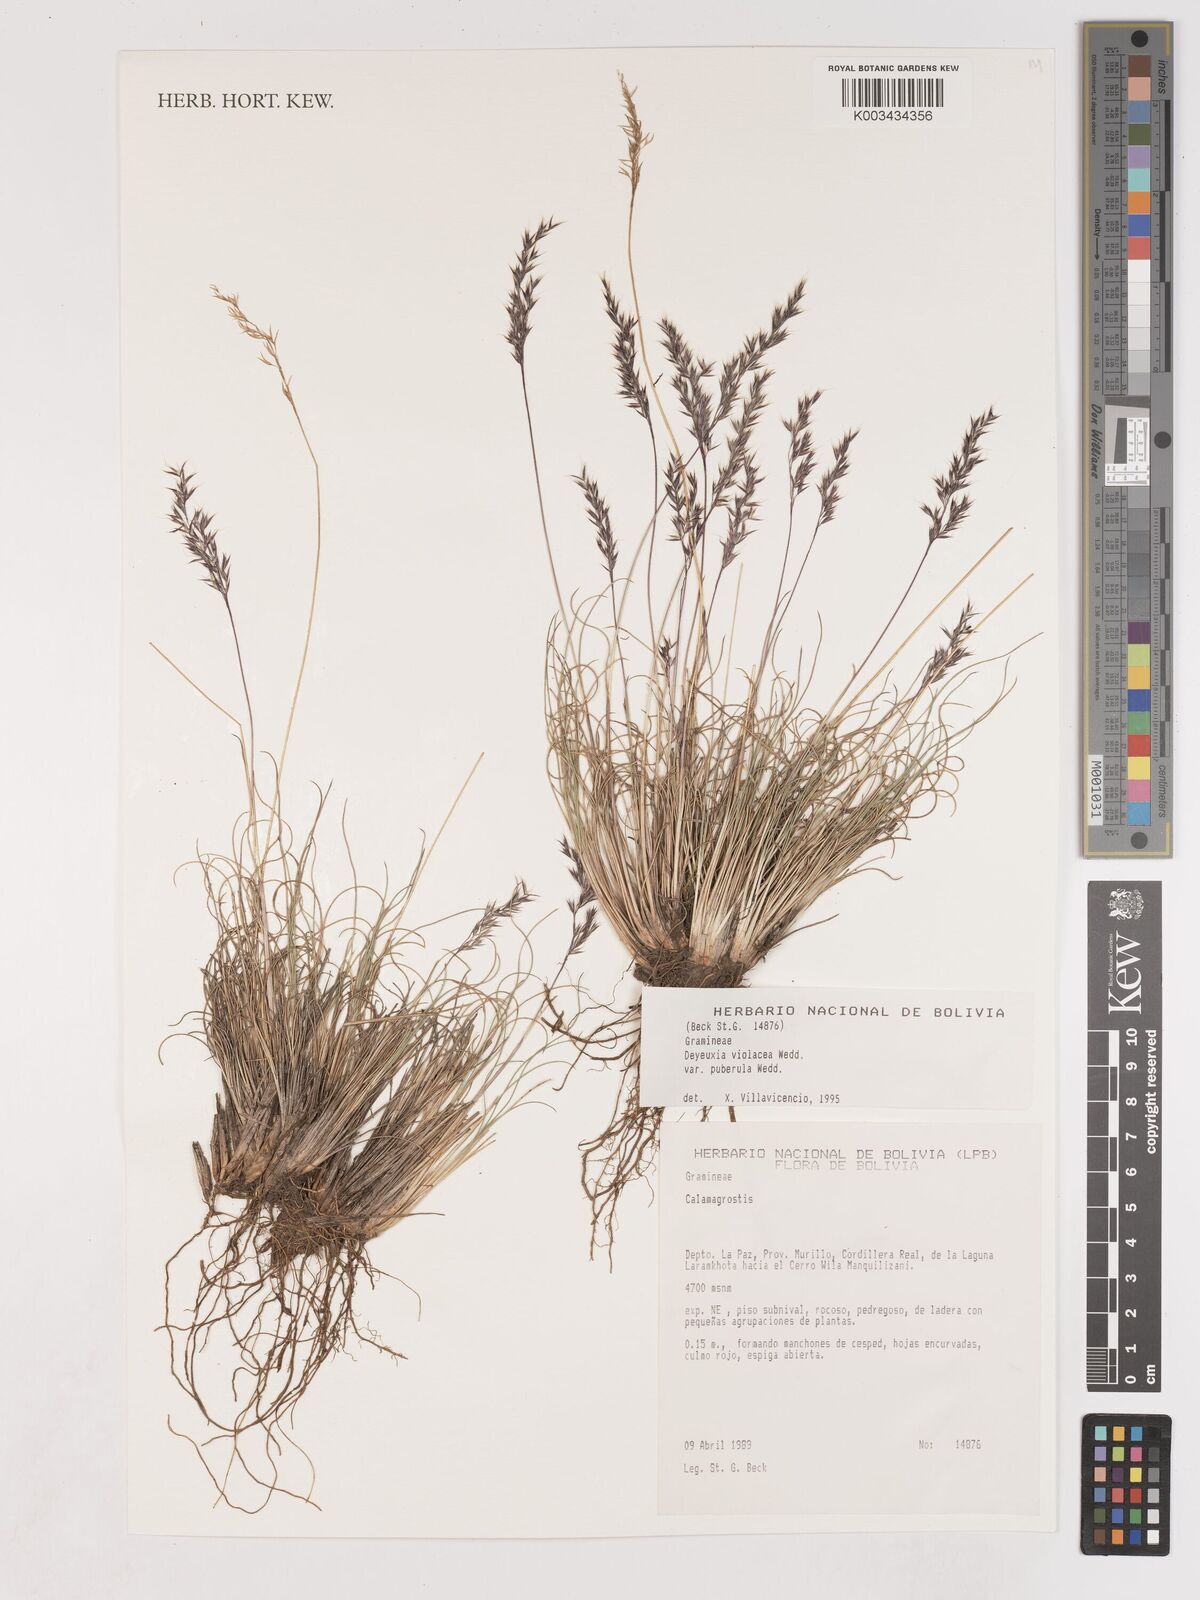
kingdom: Plantae
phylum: Tracheophyta
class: Liliopsida
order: Poales
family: Poaceae
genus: Cinnagrostis
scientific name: Cinnagrostis violacea
